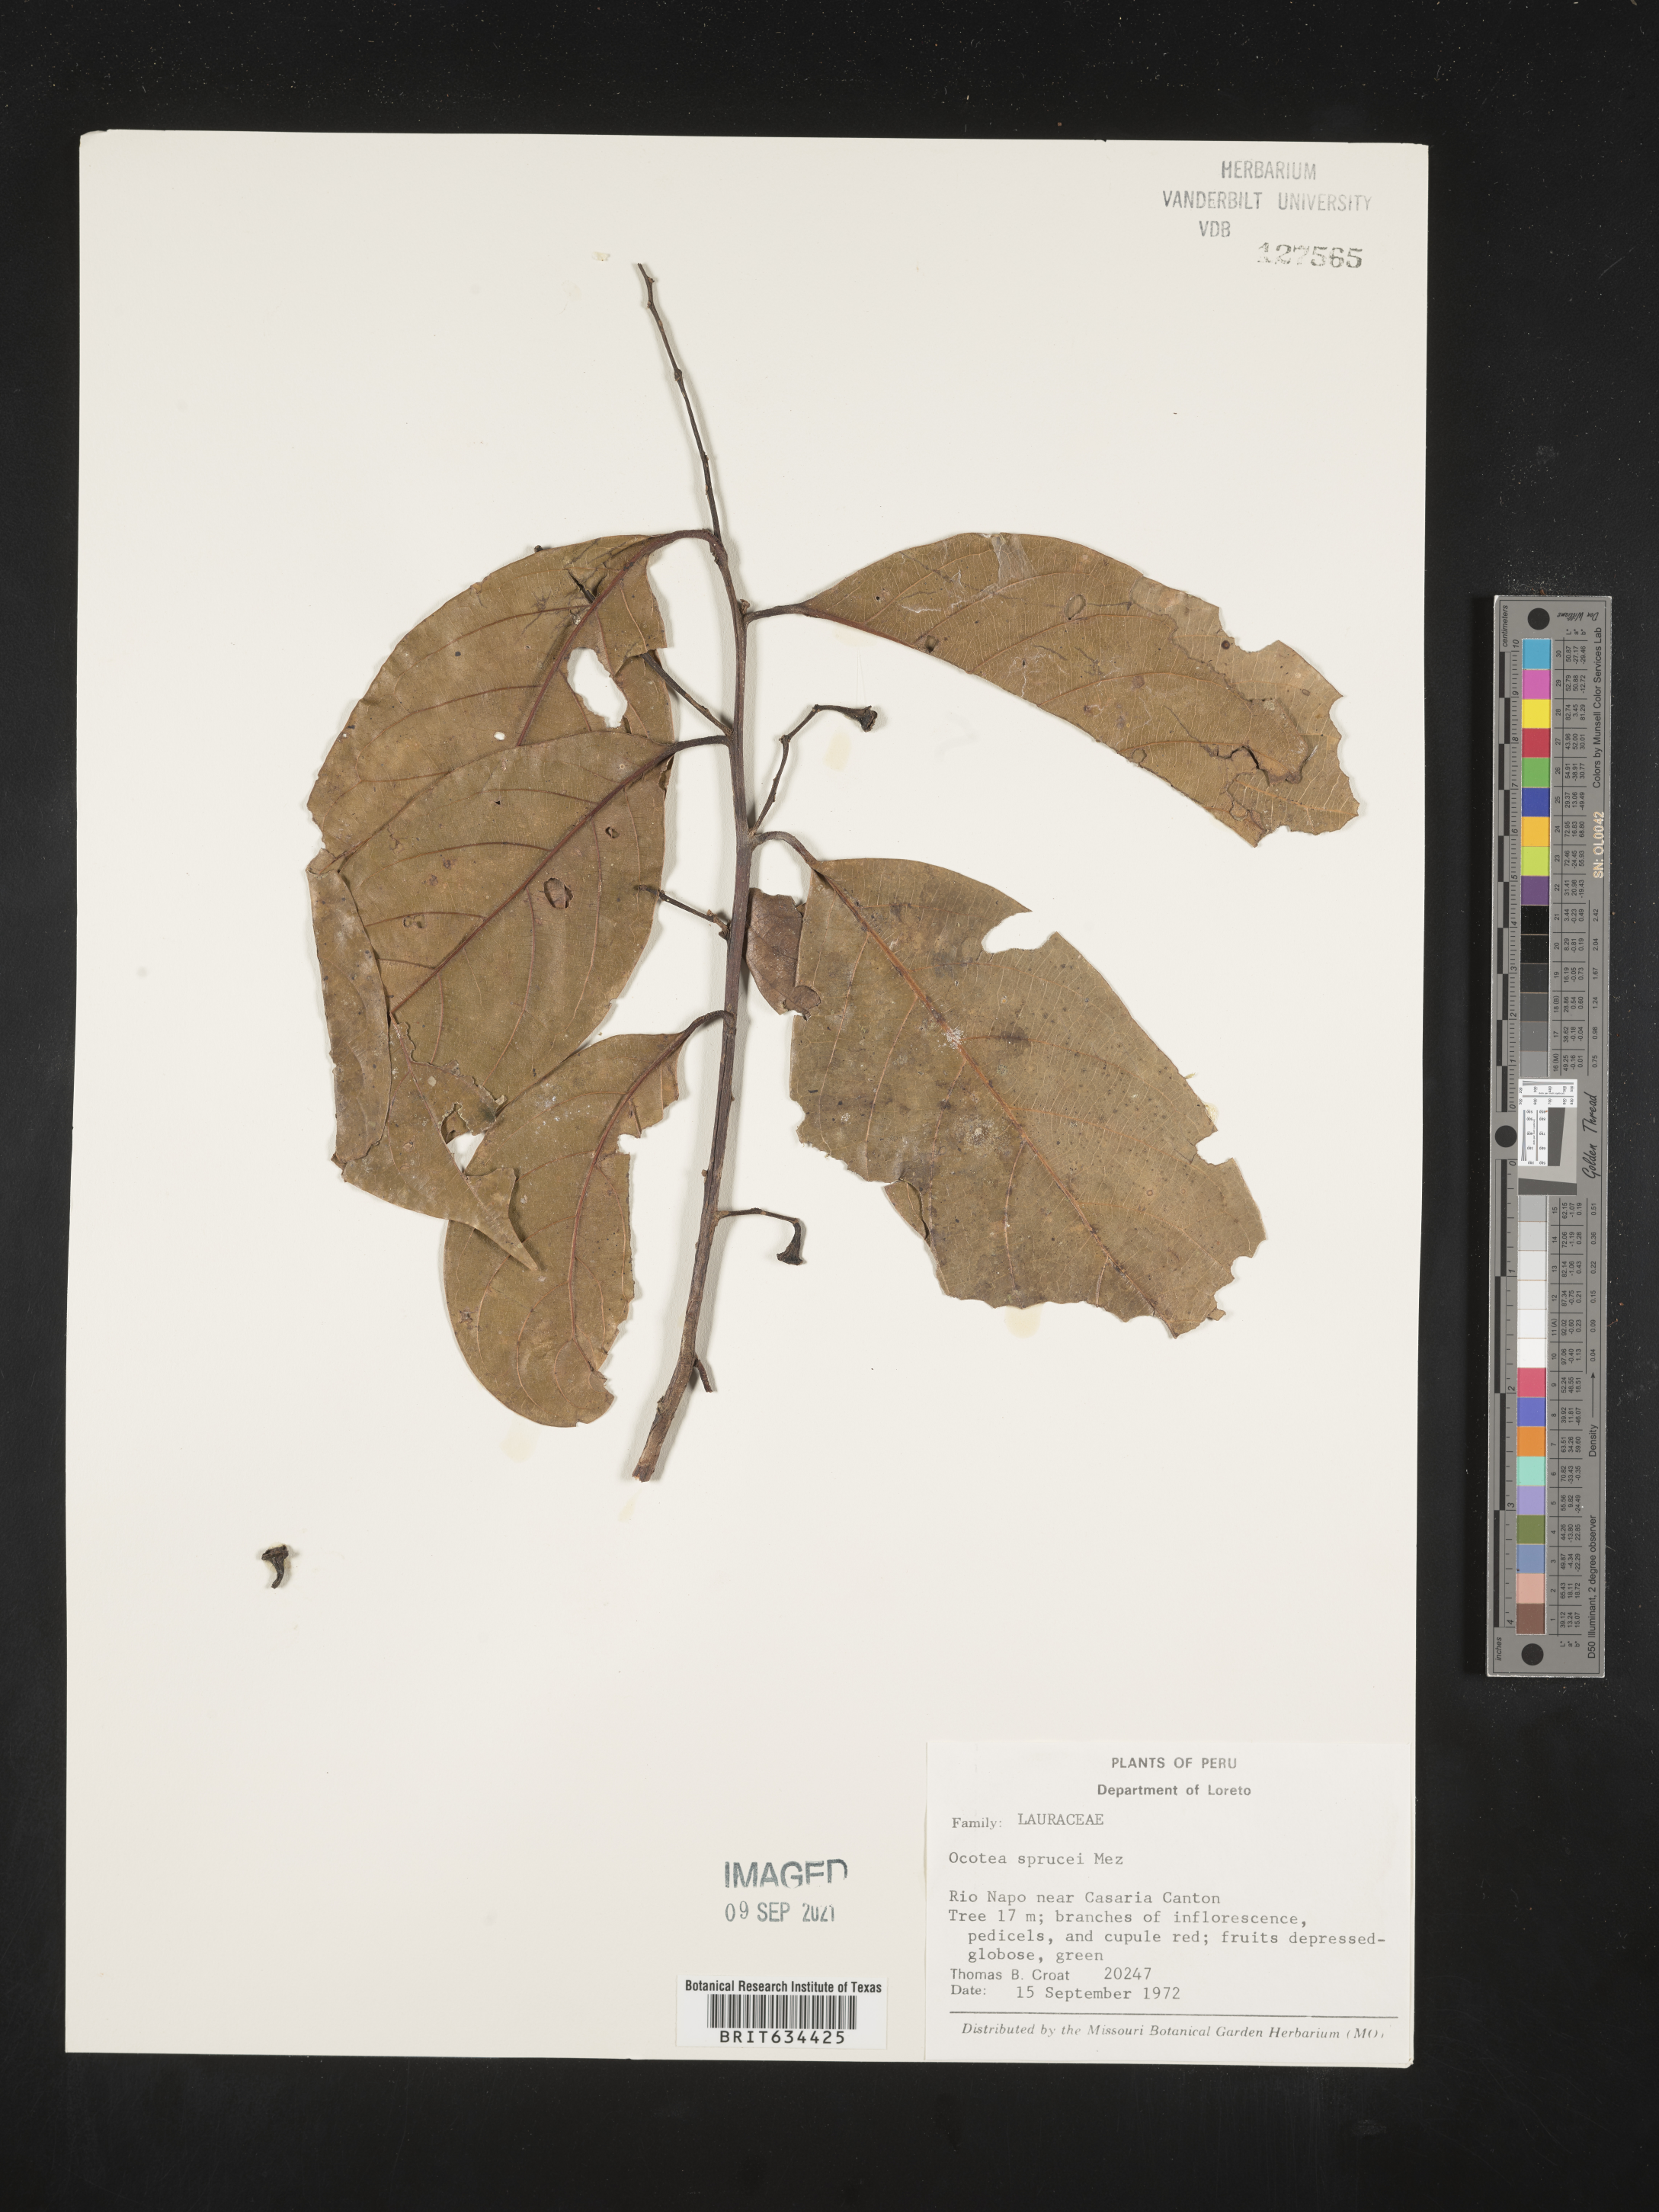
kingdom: Plantae
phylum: Tracheophyta
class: Magnoliopsida
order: Laurales
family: Lauraceae
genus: Ocotea
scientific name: Ocotea
